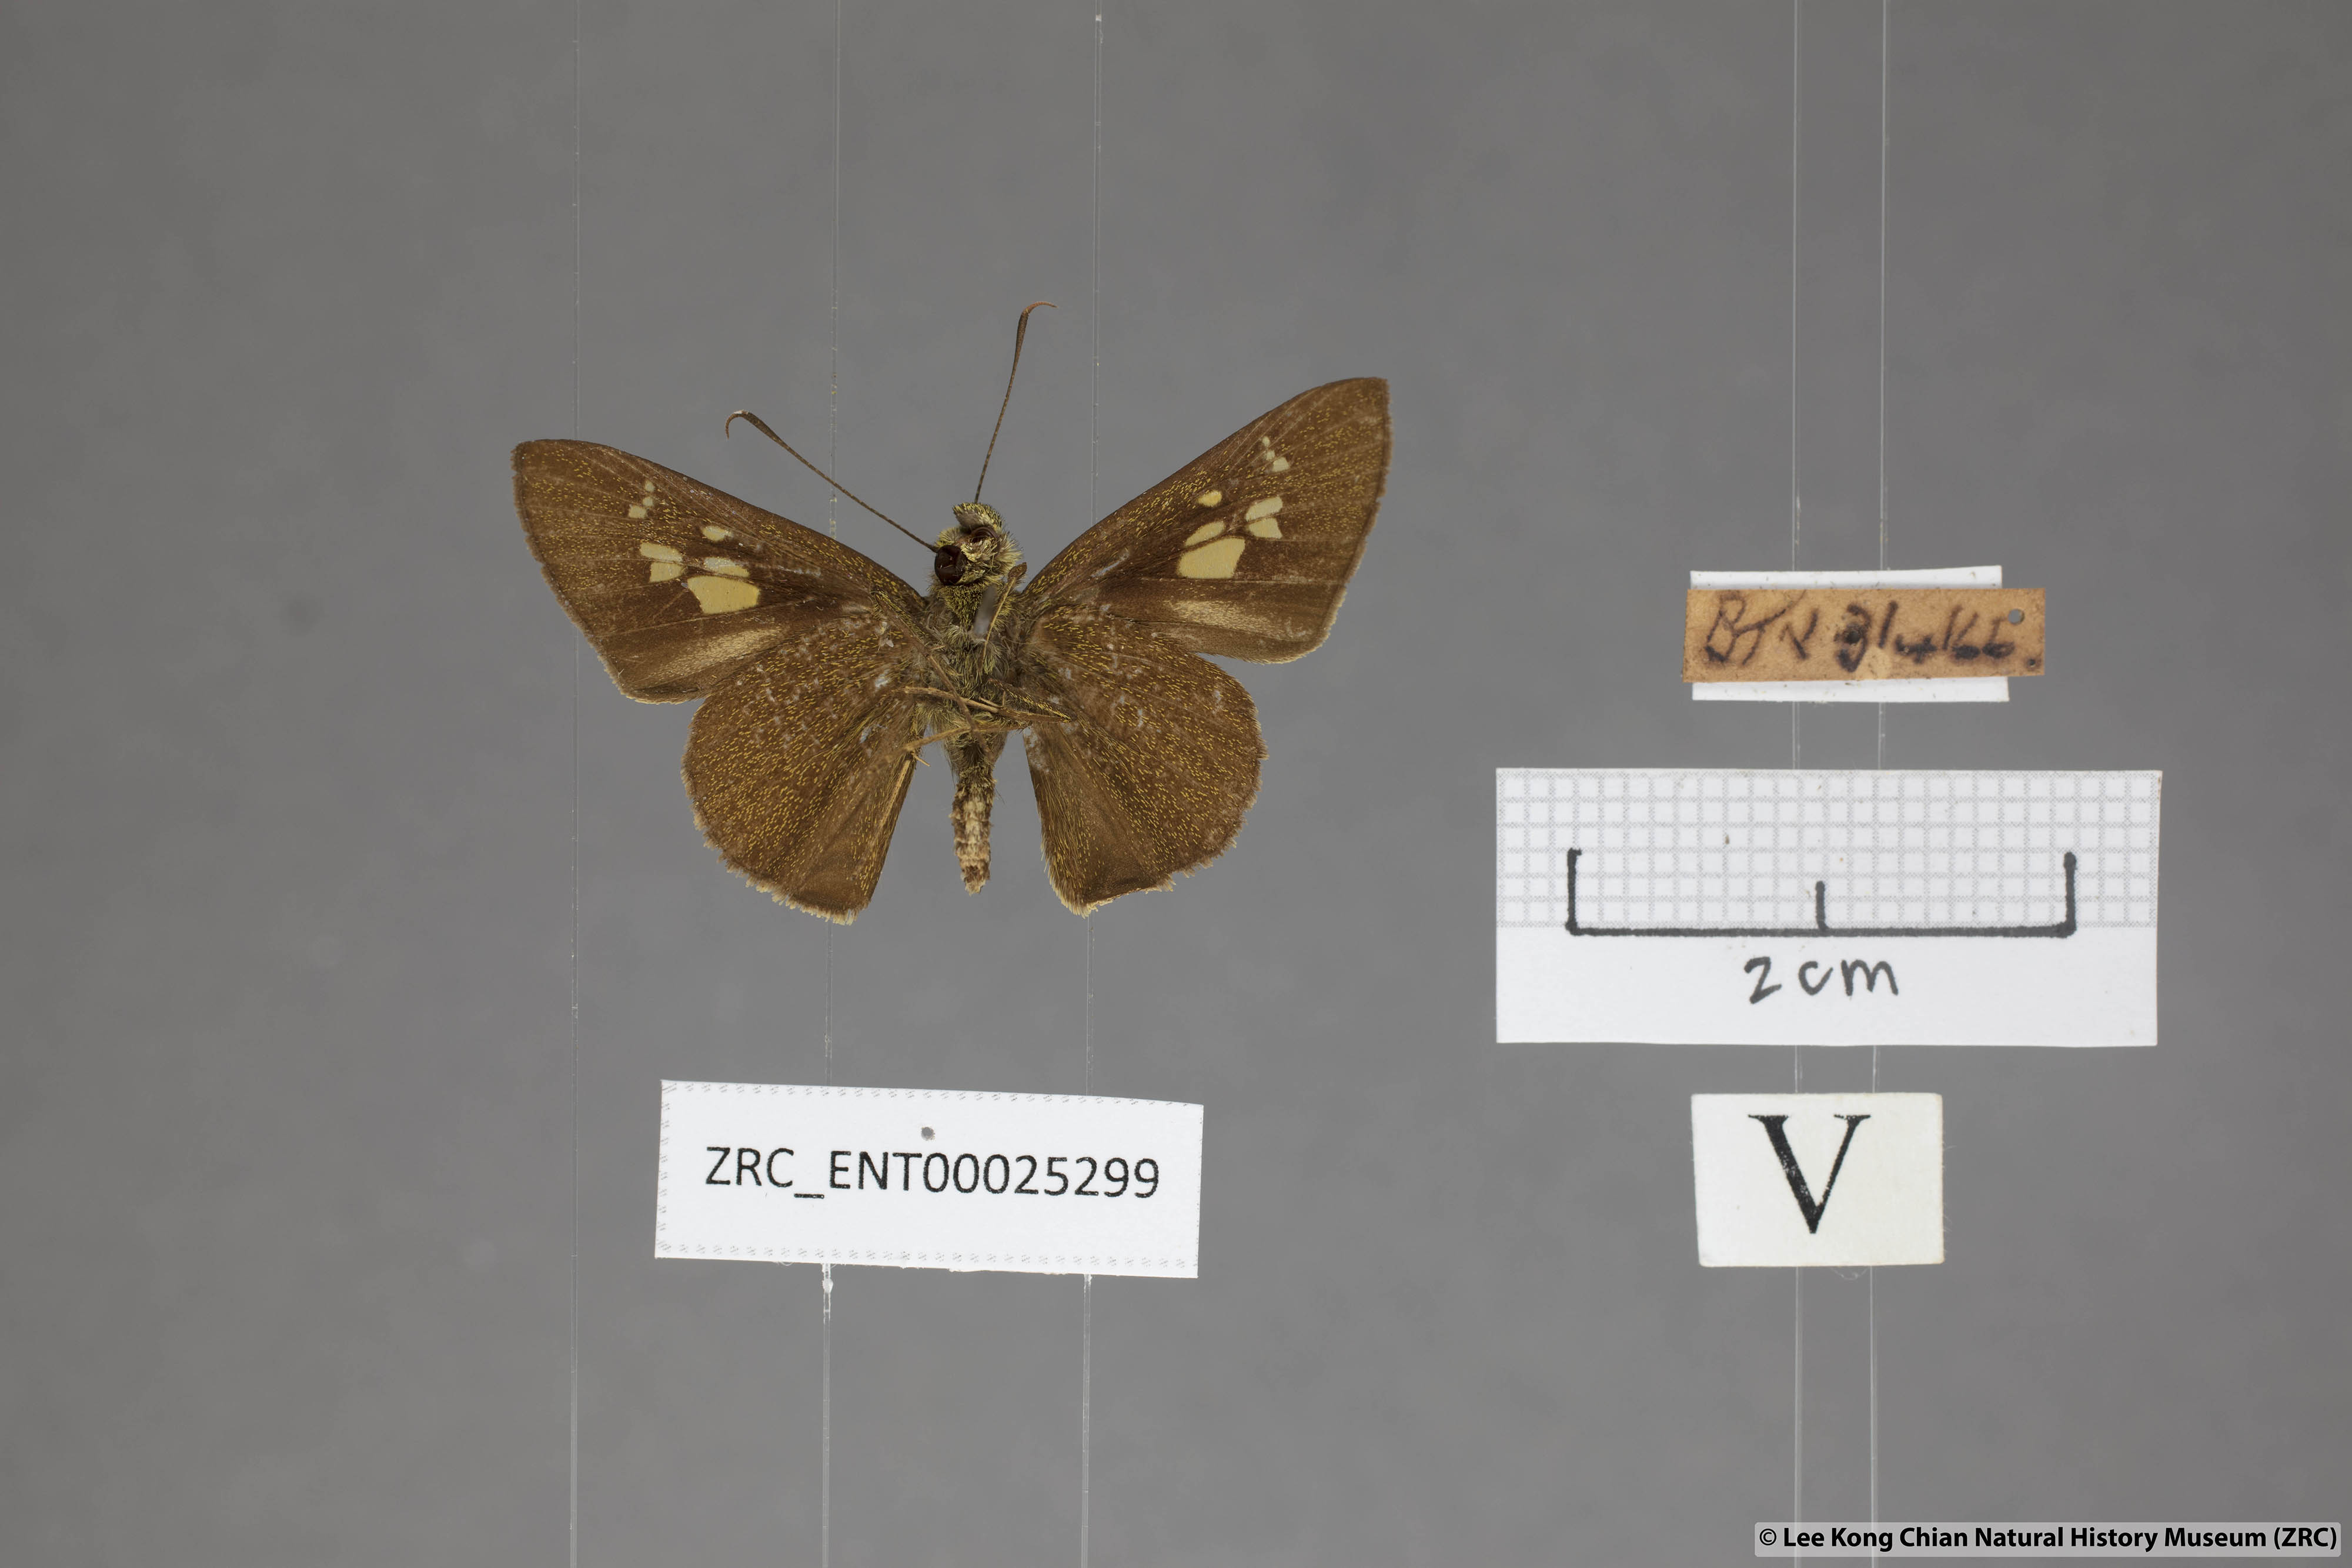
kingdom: Animalia
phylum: Arthropoda
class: Insecta
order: Lepidoptera
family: Hesperiidae
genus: Pemara
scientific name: Pemara pugnans
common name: Pugnacious lancer
